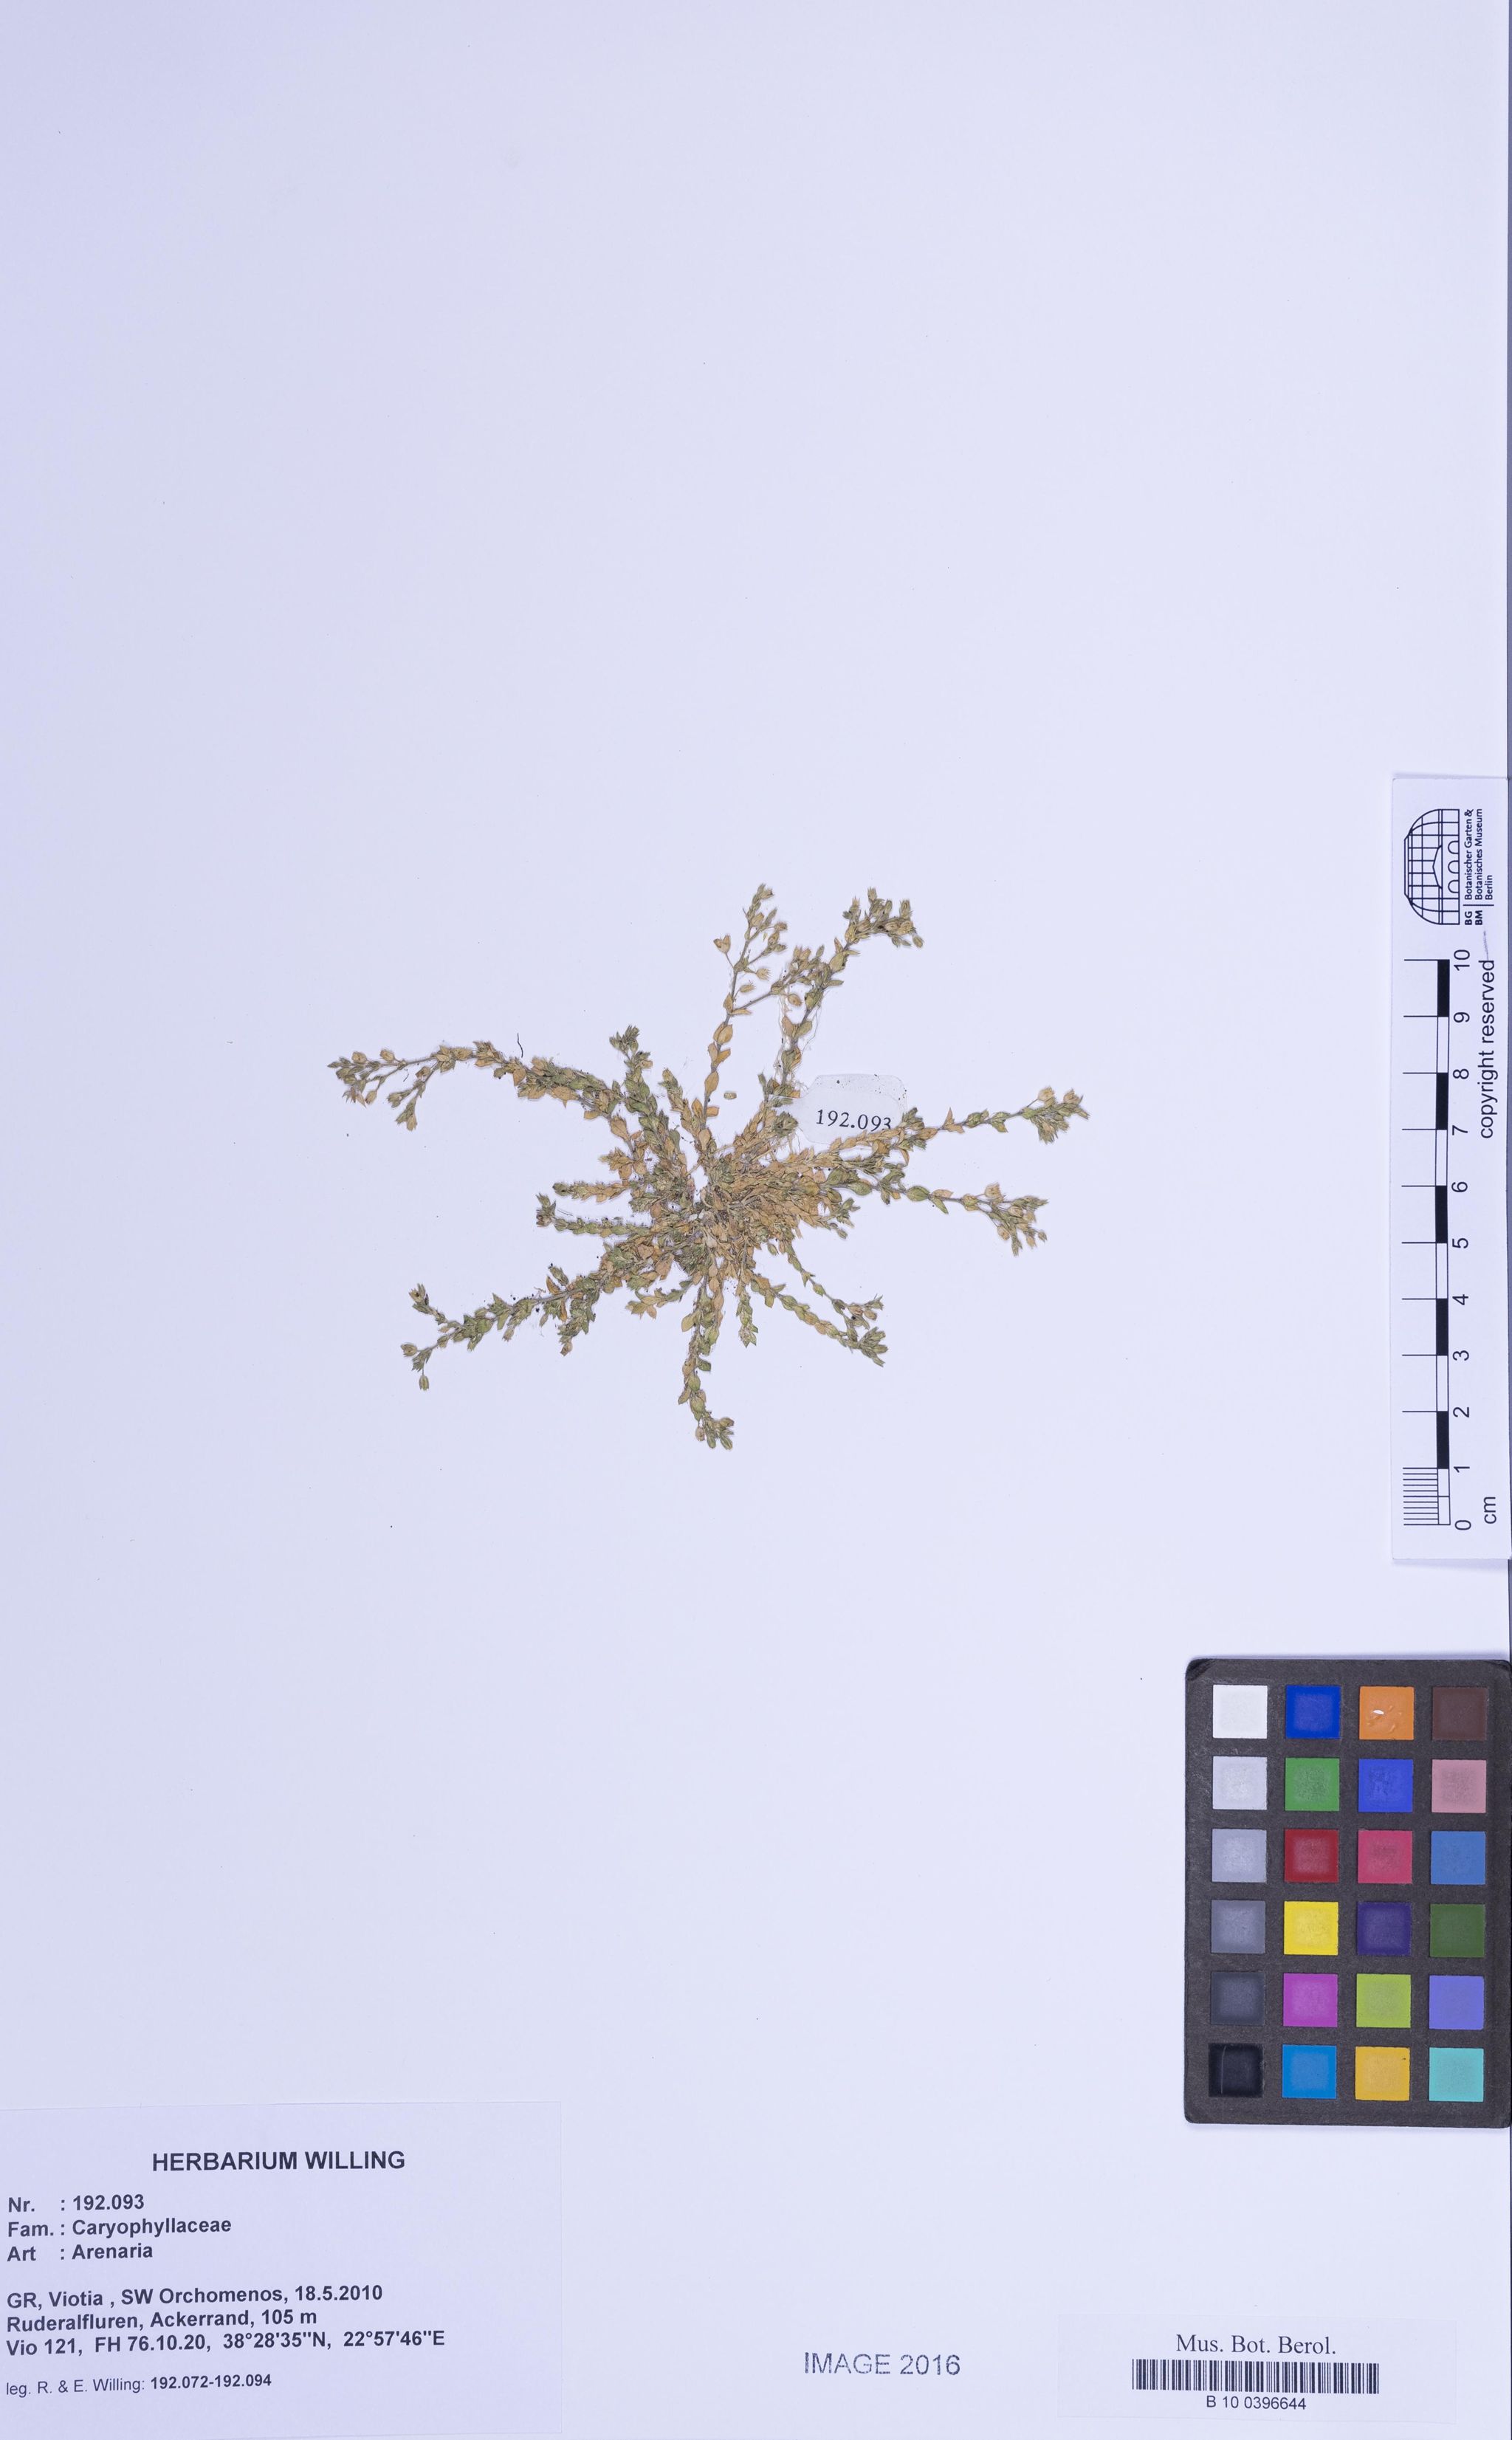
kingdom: Plantae
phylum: Tracheophyta
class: Magnoliopsida
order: Caryophyllales
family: Caryophyllaceae
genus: Arenaria
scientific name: Arenaria
